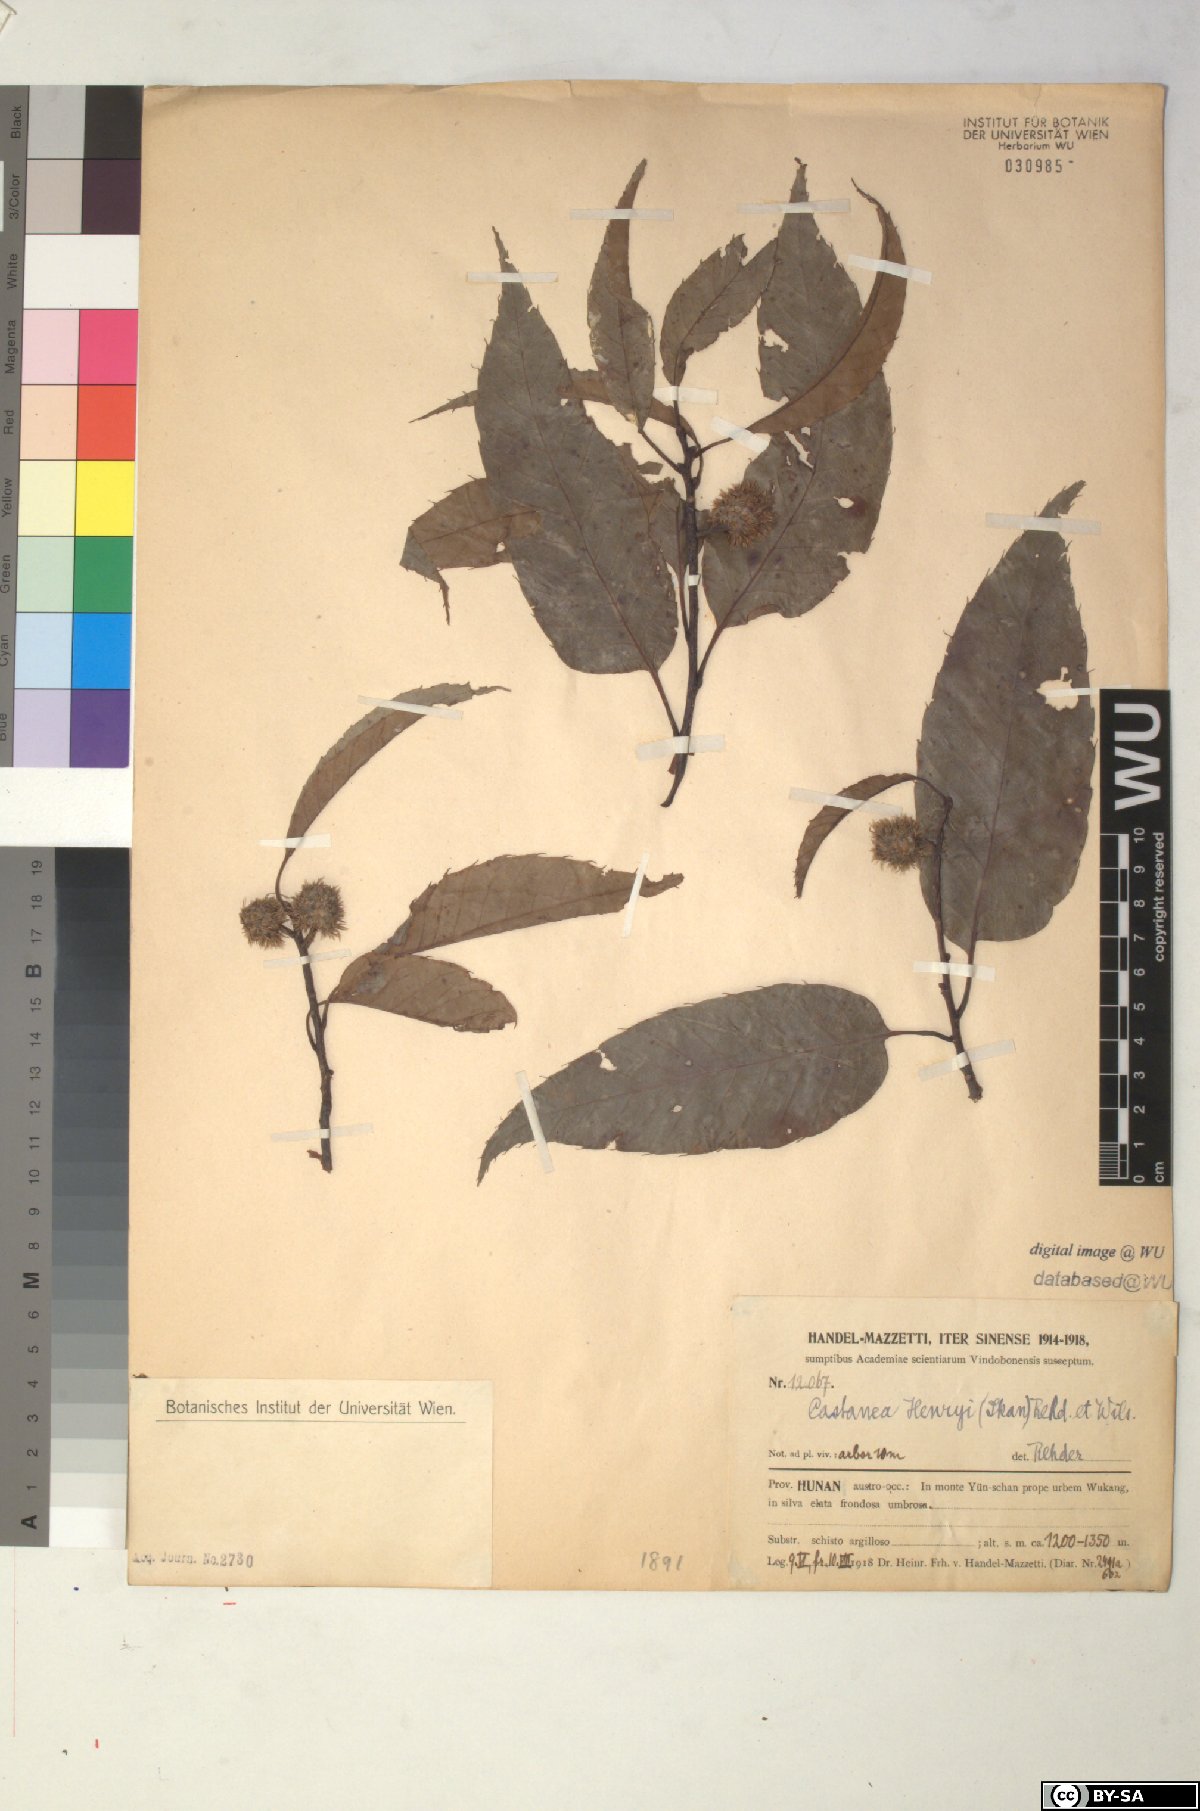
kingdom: Plantae
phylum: Tracheophyta
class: Magnoliopsida
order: Fagales
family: Fagaceae
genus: Castanea
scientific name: Castanea henryi
